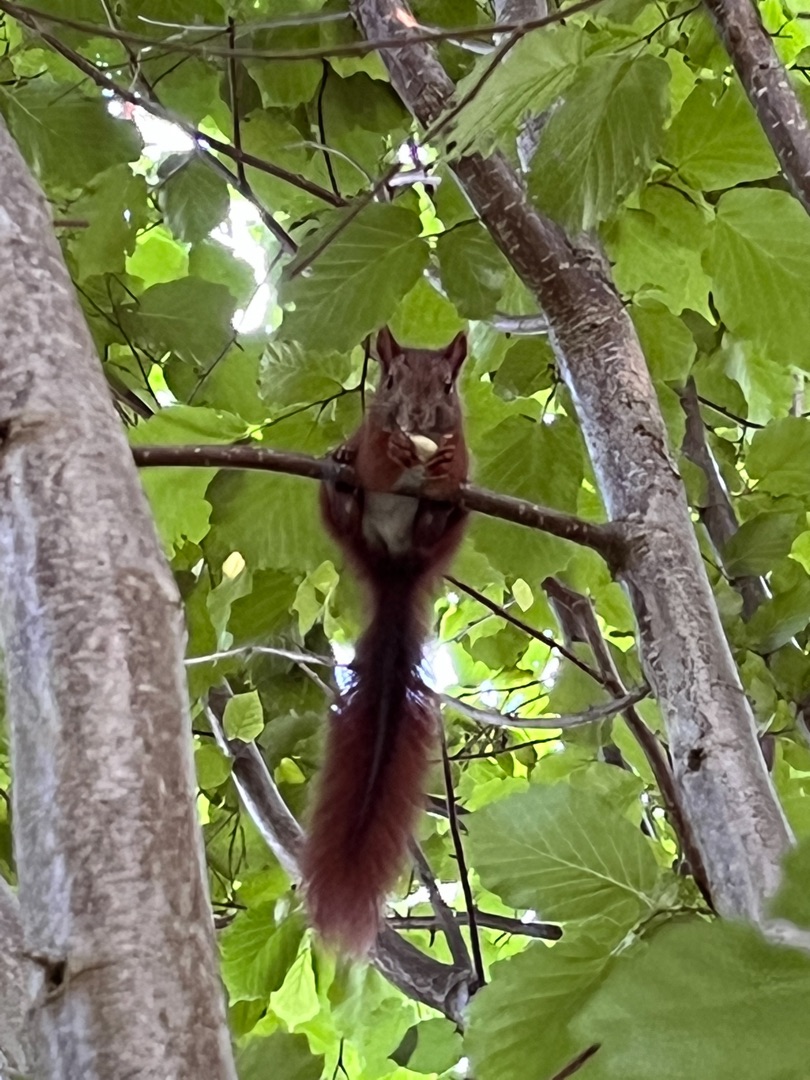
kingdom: Animalia
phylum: Chordata
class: Mammalia
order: Rodentia
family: Sciuridae
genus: Sciurus
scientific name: Sciurus vulgaris
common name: Egern
